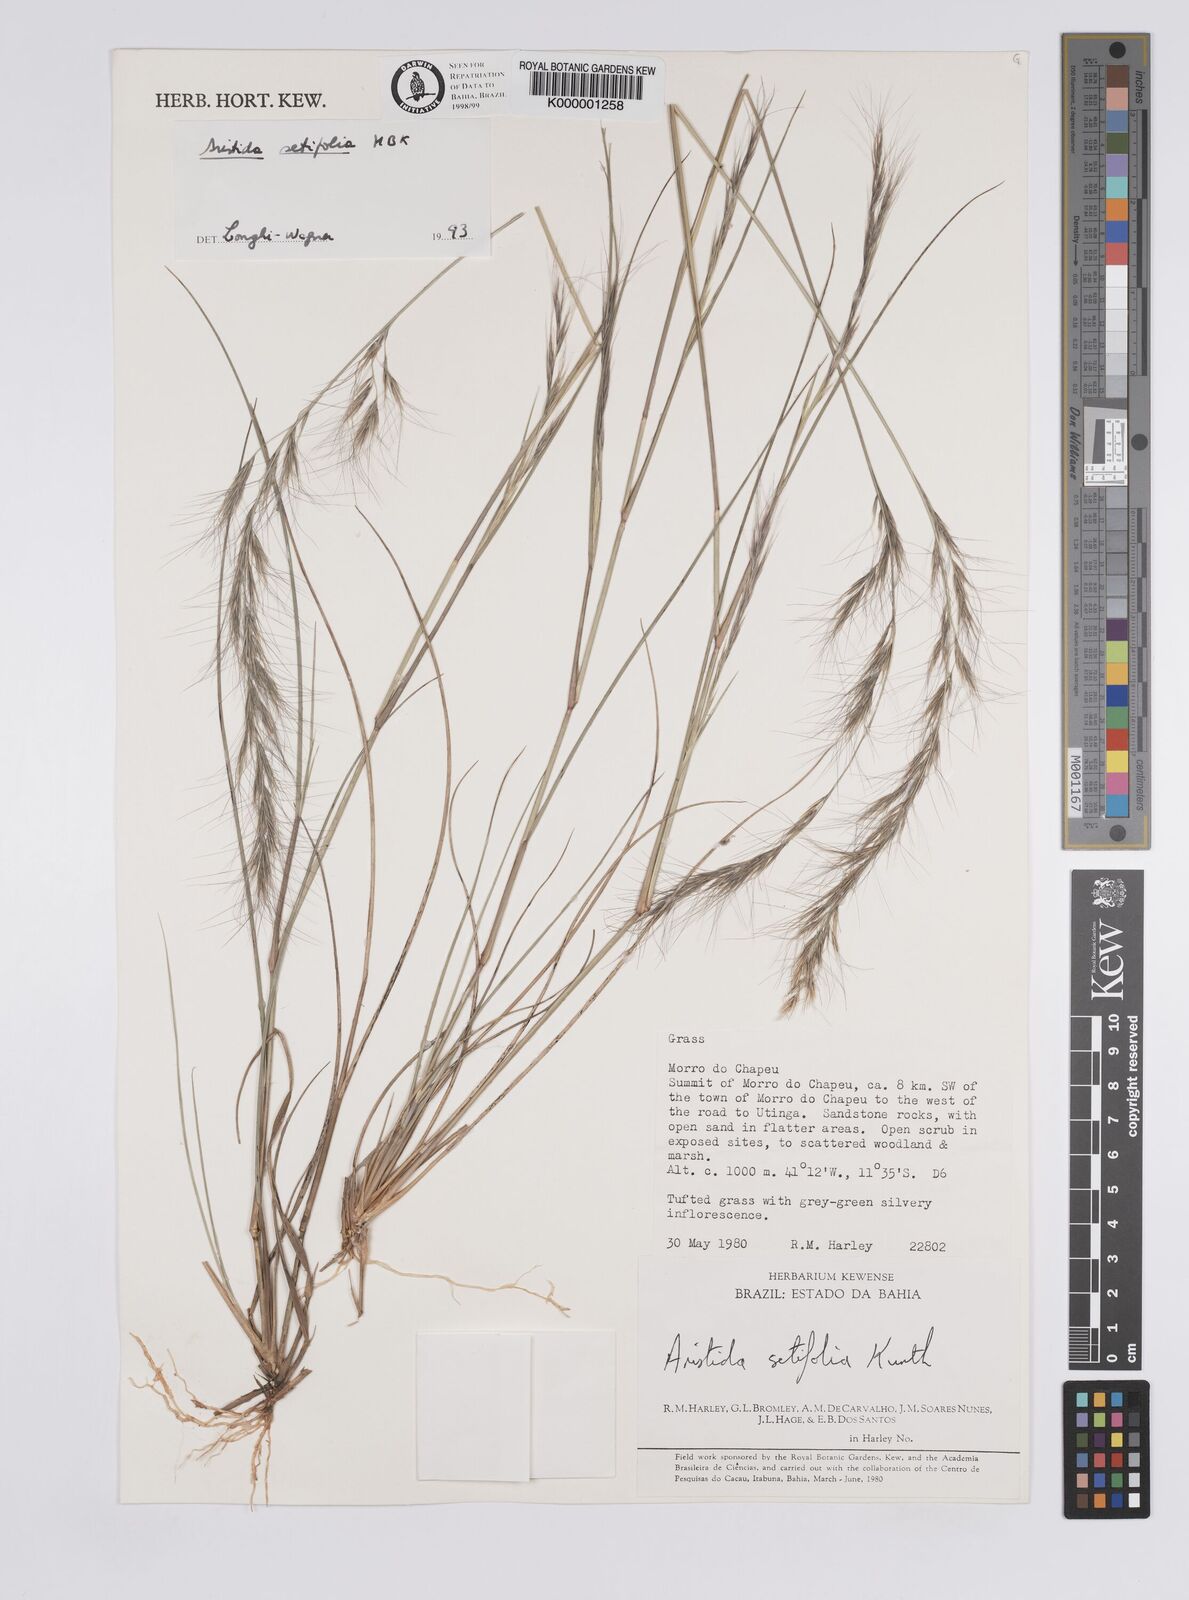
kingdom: Plantae
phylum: Tracheophyta
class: Liliopsida
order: Poales
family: Poaceae
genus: Aristida
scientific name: Aristida setifolia
